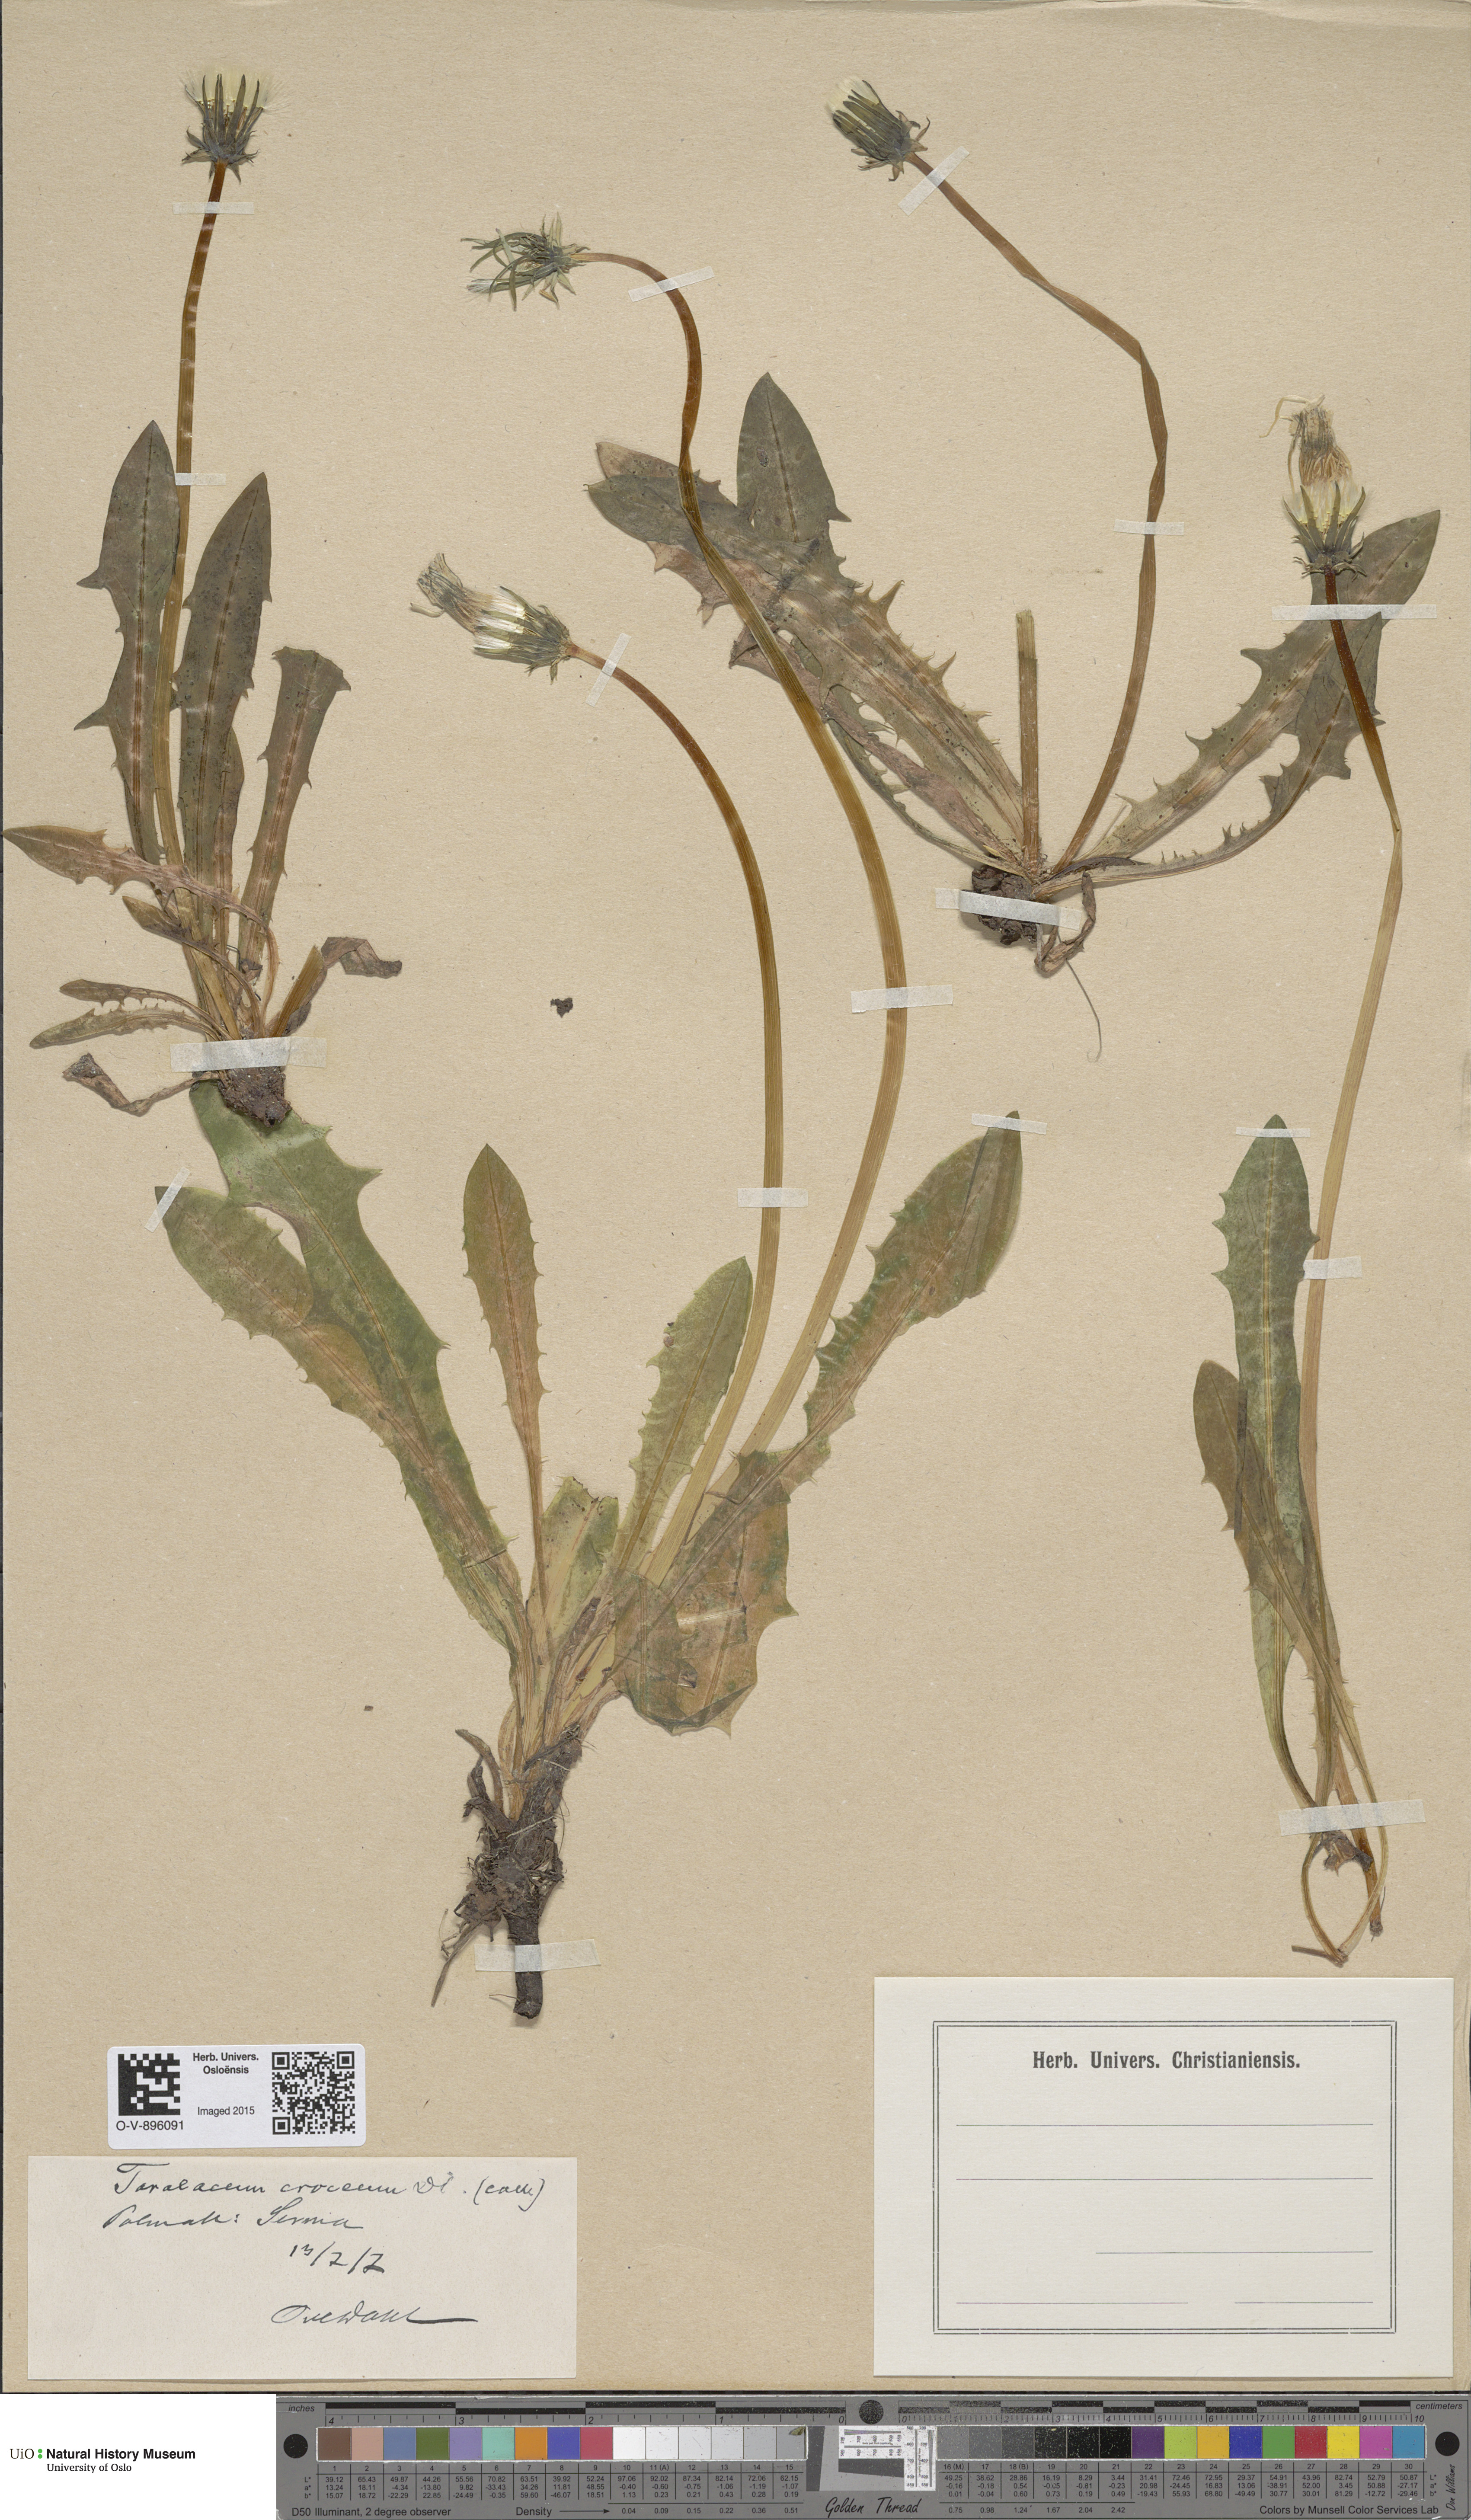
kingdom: Plantae
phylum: Tracheophyta
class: Magnoliopsida
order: Asterales
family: Asteraceae
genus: Taraxacum
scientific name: Taraxacum croceum
